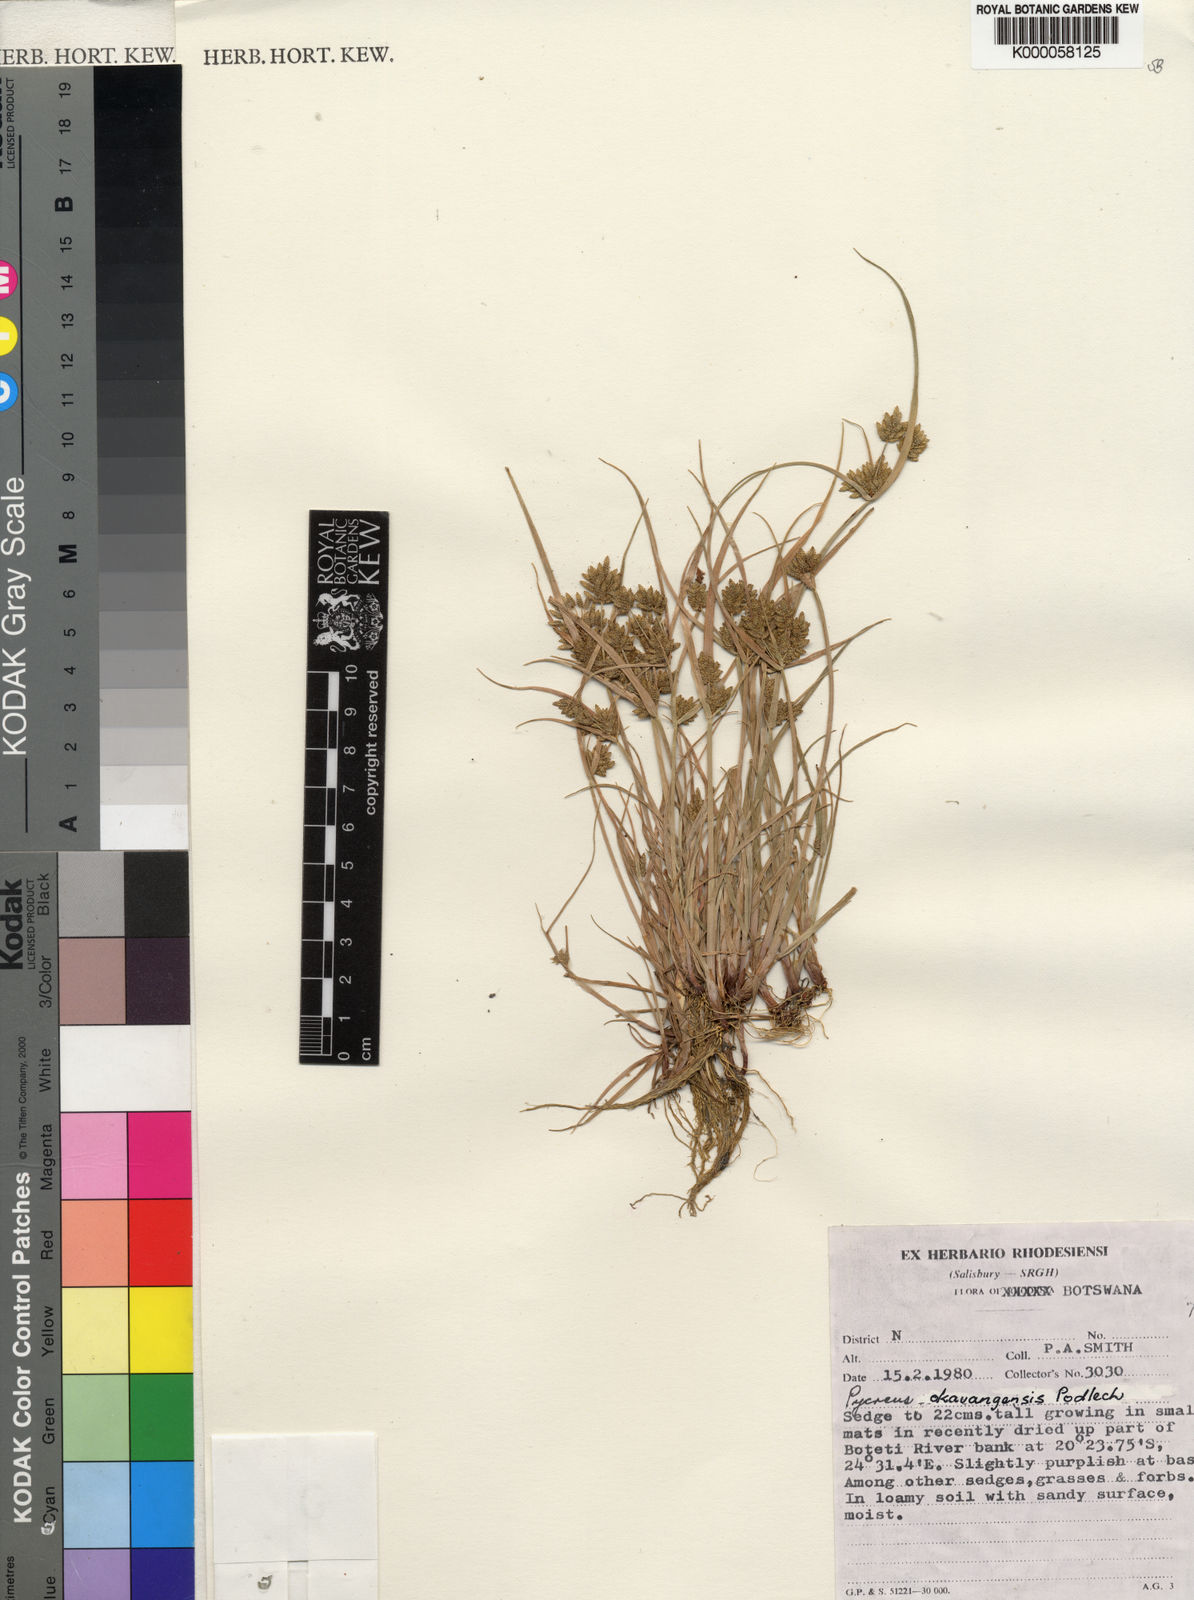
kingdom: Plantae
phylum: Tracheophyta
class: Liliopsida
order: Poales
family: Cyperaceae
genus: Cyperus
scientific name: Cyperus okavangensis
